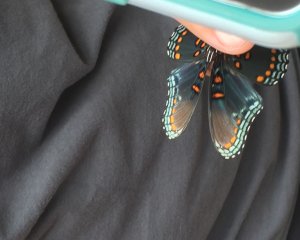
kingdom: Animalia
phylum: Arthropoda
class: Insecta
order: Lepidoptera
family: Nymphalidae
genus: Limenitis
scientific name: Limenitis astyanax
